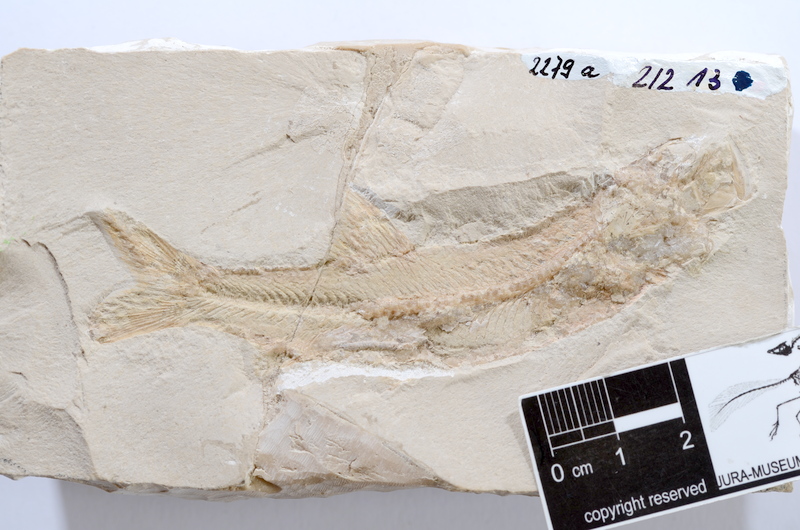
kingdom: Animalia
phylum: Chordata
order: Elopiformes
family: Anaethalionidae
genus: Anaethalion
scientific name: Anaethalion angustissimus
